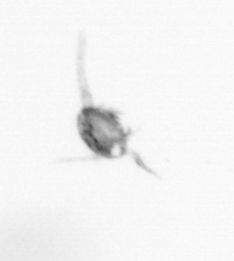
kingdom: Animalia
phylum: Arthropoda
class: Copepoda
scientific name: Copepoda
